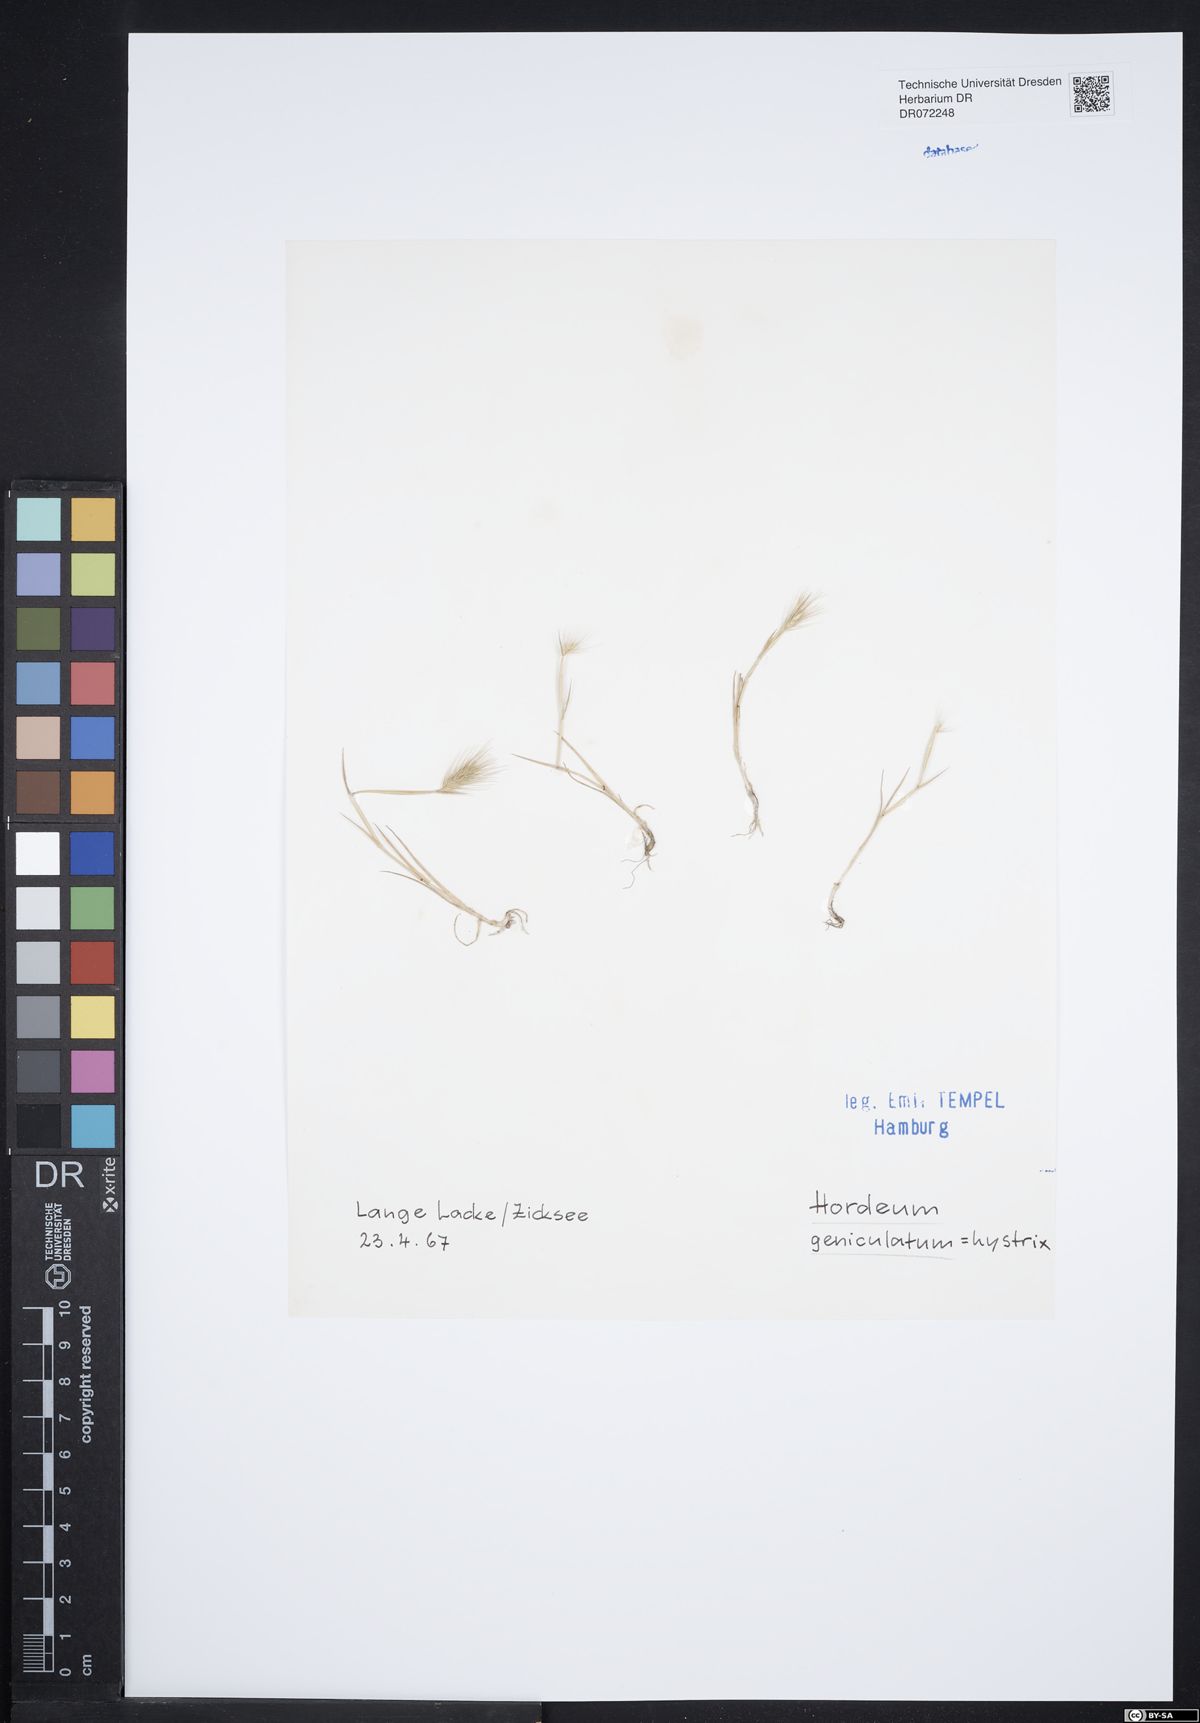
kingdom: Plantae
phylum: Tracheophyta
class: Liliopsida
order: Poales
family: Poaceae
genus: Hordeum
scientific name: Hordeum marinum
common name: Sea barley
